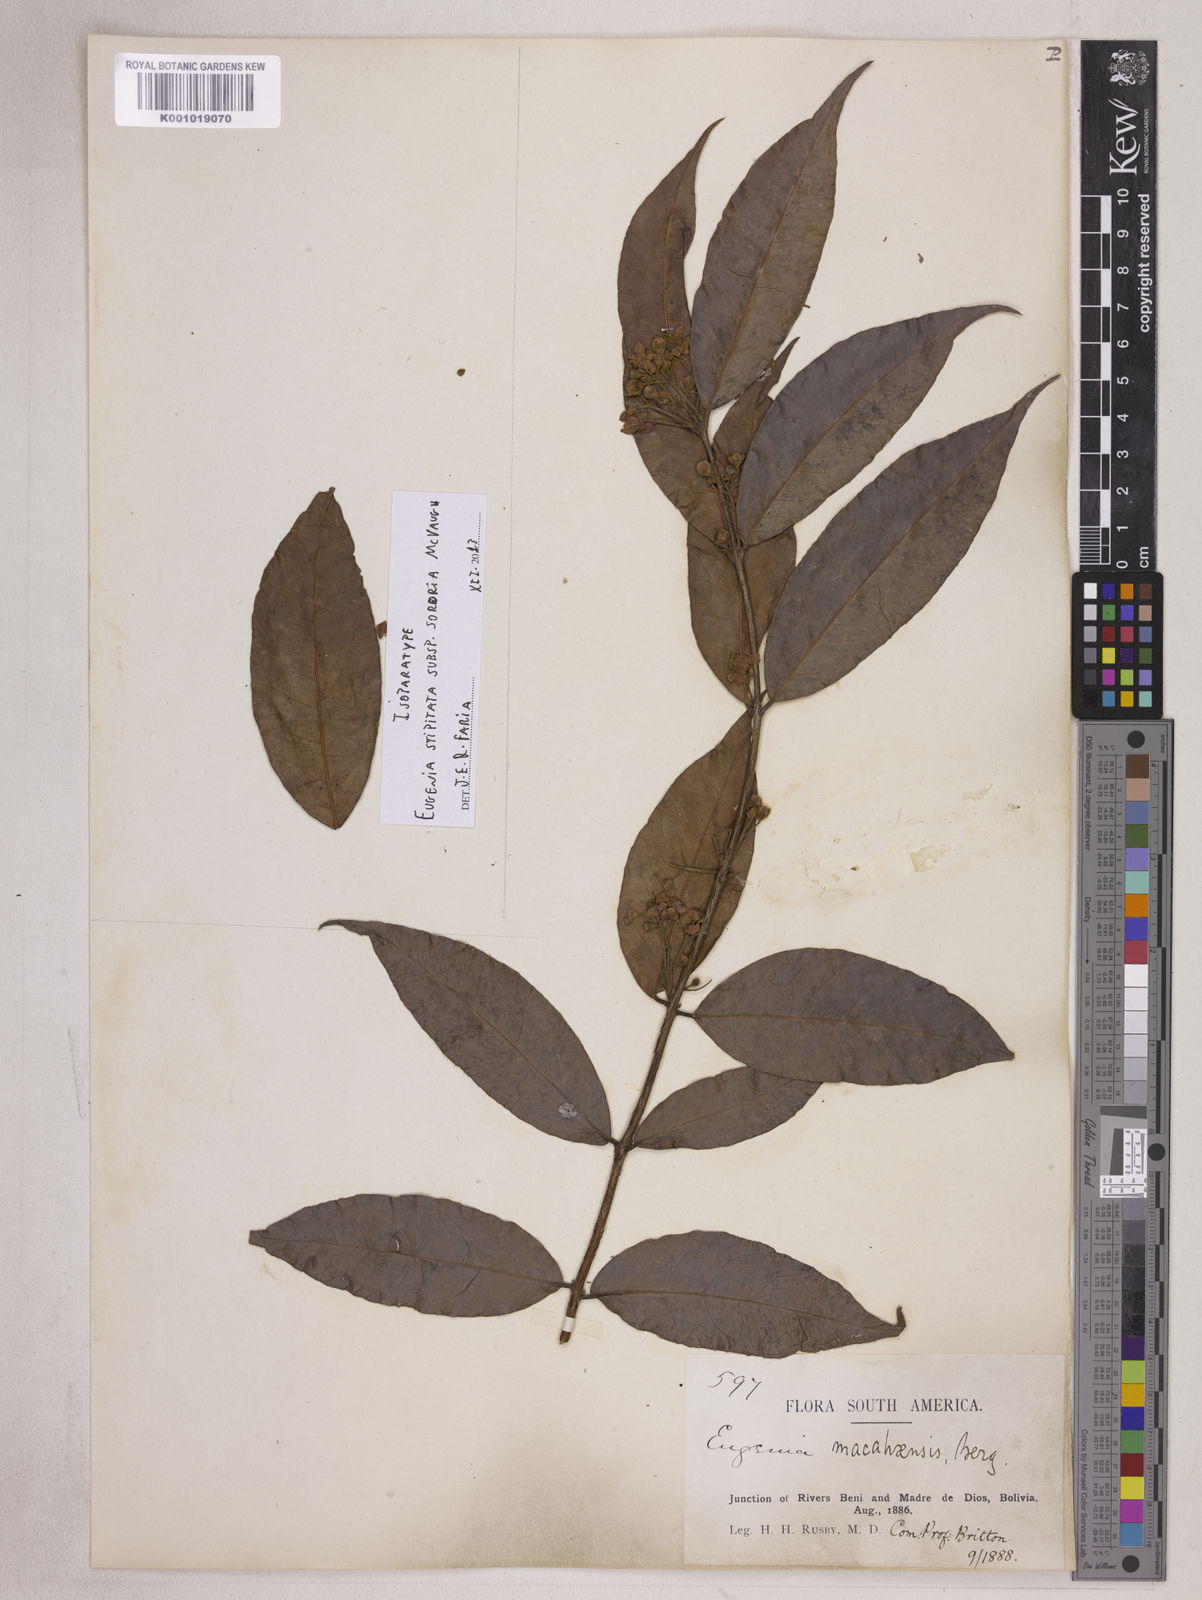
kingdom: Plantae
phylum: Tracheophyta
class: Magnoliopsida
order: Myrtales
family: Myrtaceae
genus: Eugenia
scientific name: Eugenia stipitata
